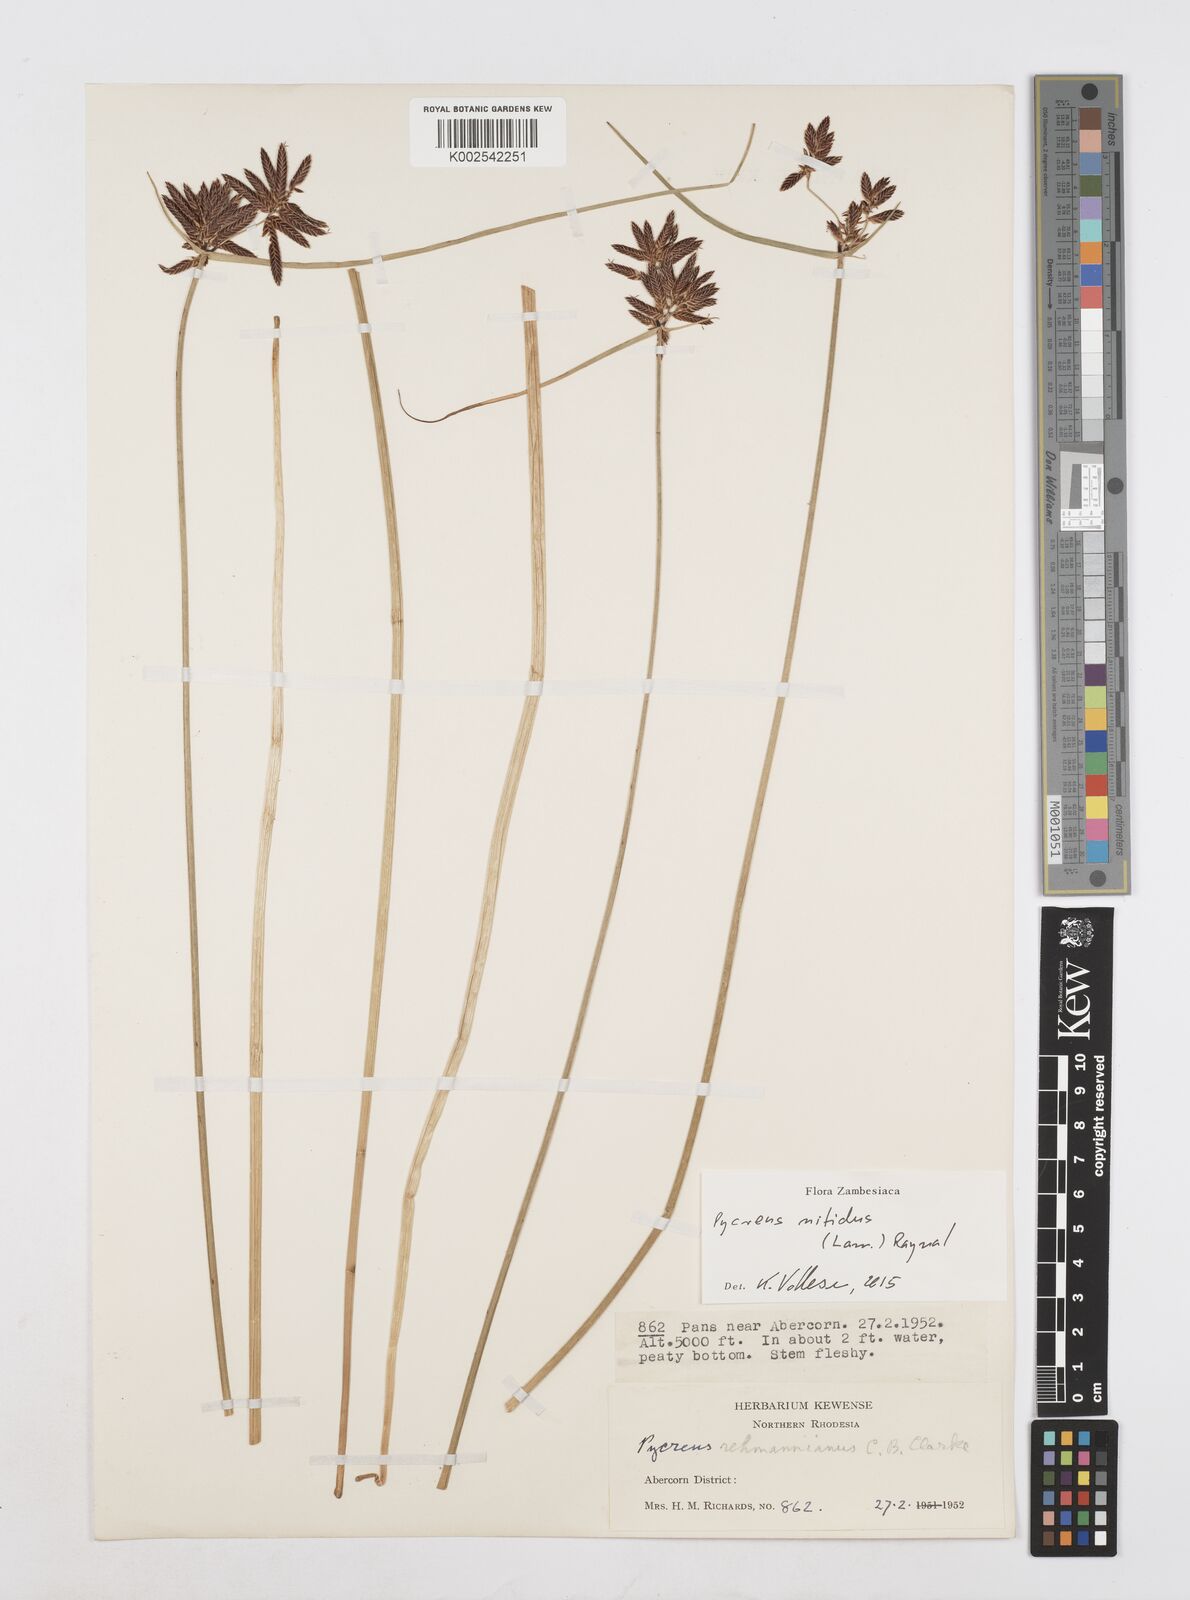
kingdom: Plantae
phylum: Tracheophyta
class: Liliopsida
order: Poales
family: Cyperaceae
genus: Cyperus
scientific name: Cyperus nitidus
